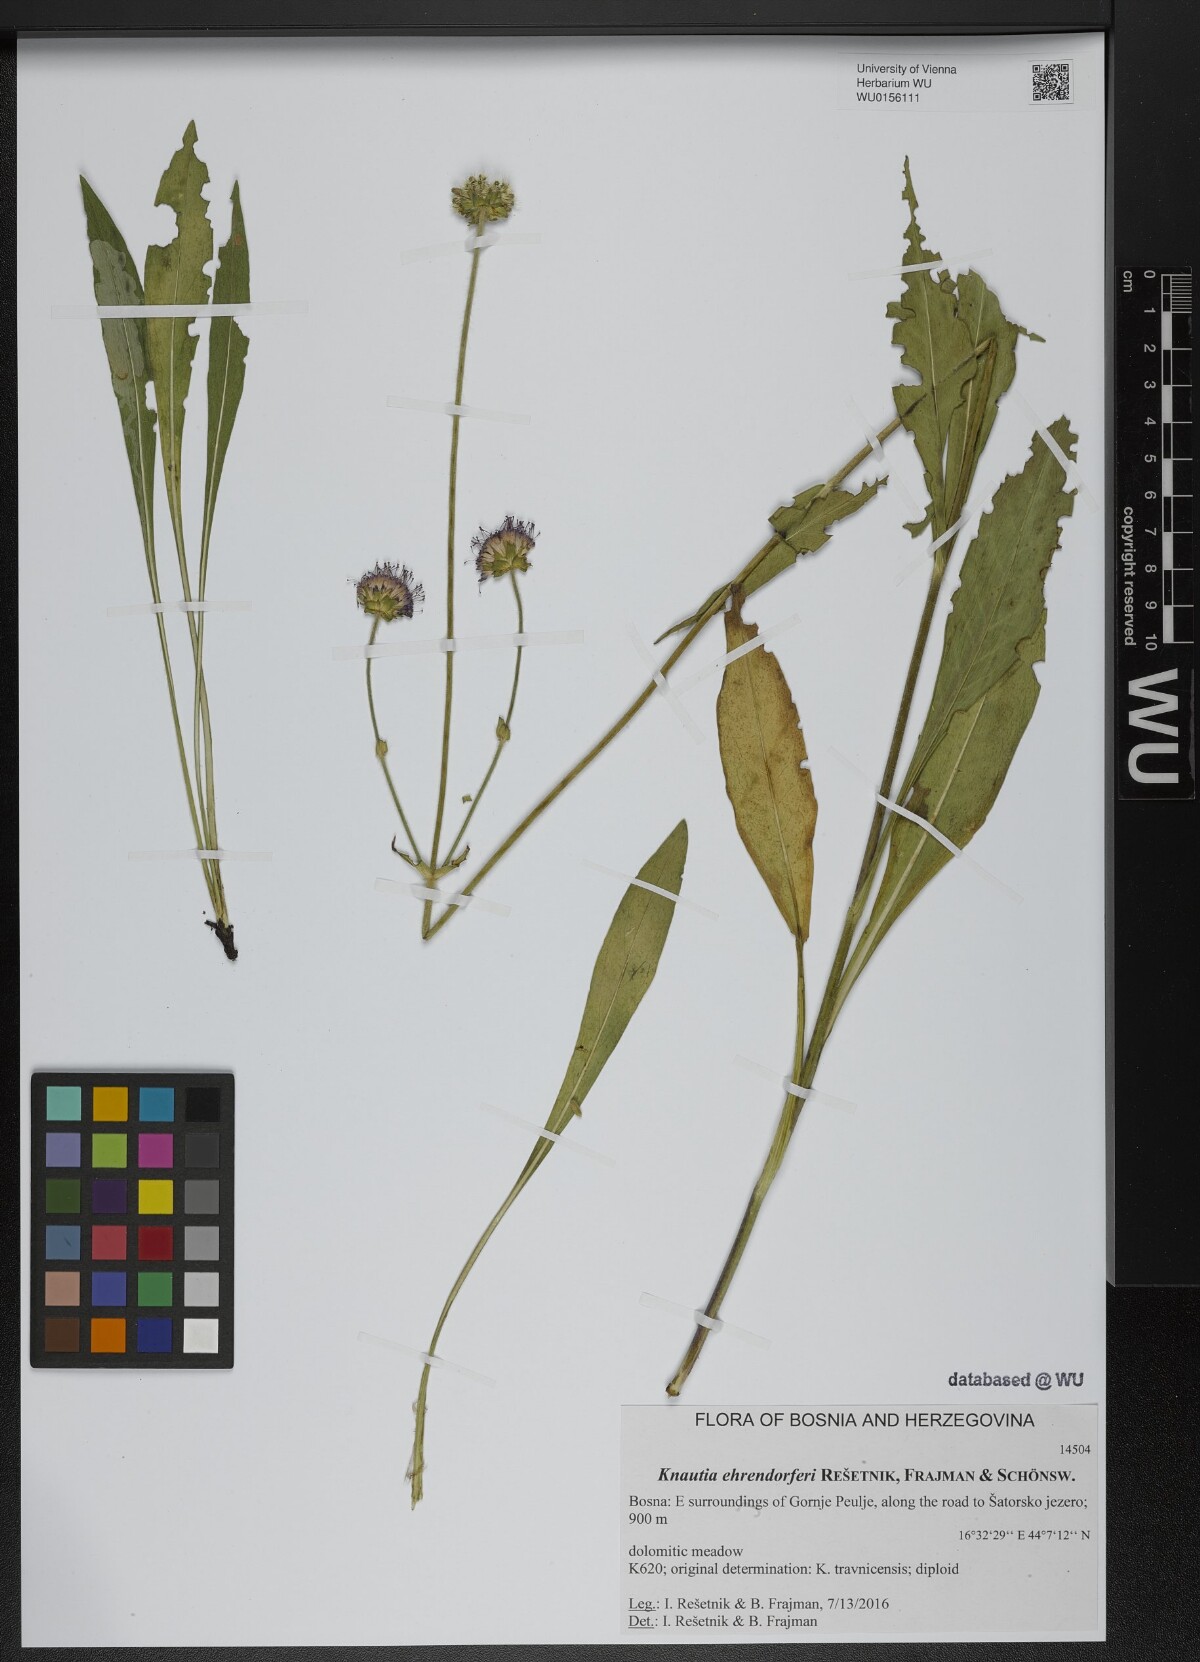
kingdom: Plantae
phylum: Tracheophyta
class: Magnoliopsida
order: Dipsacales
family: Caprifoliaceae
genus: Knautia
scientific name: Knautia
